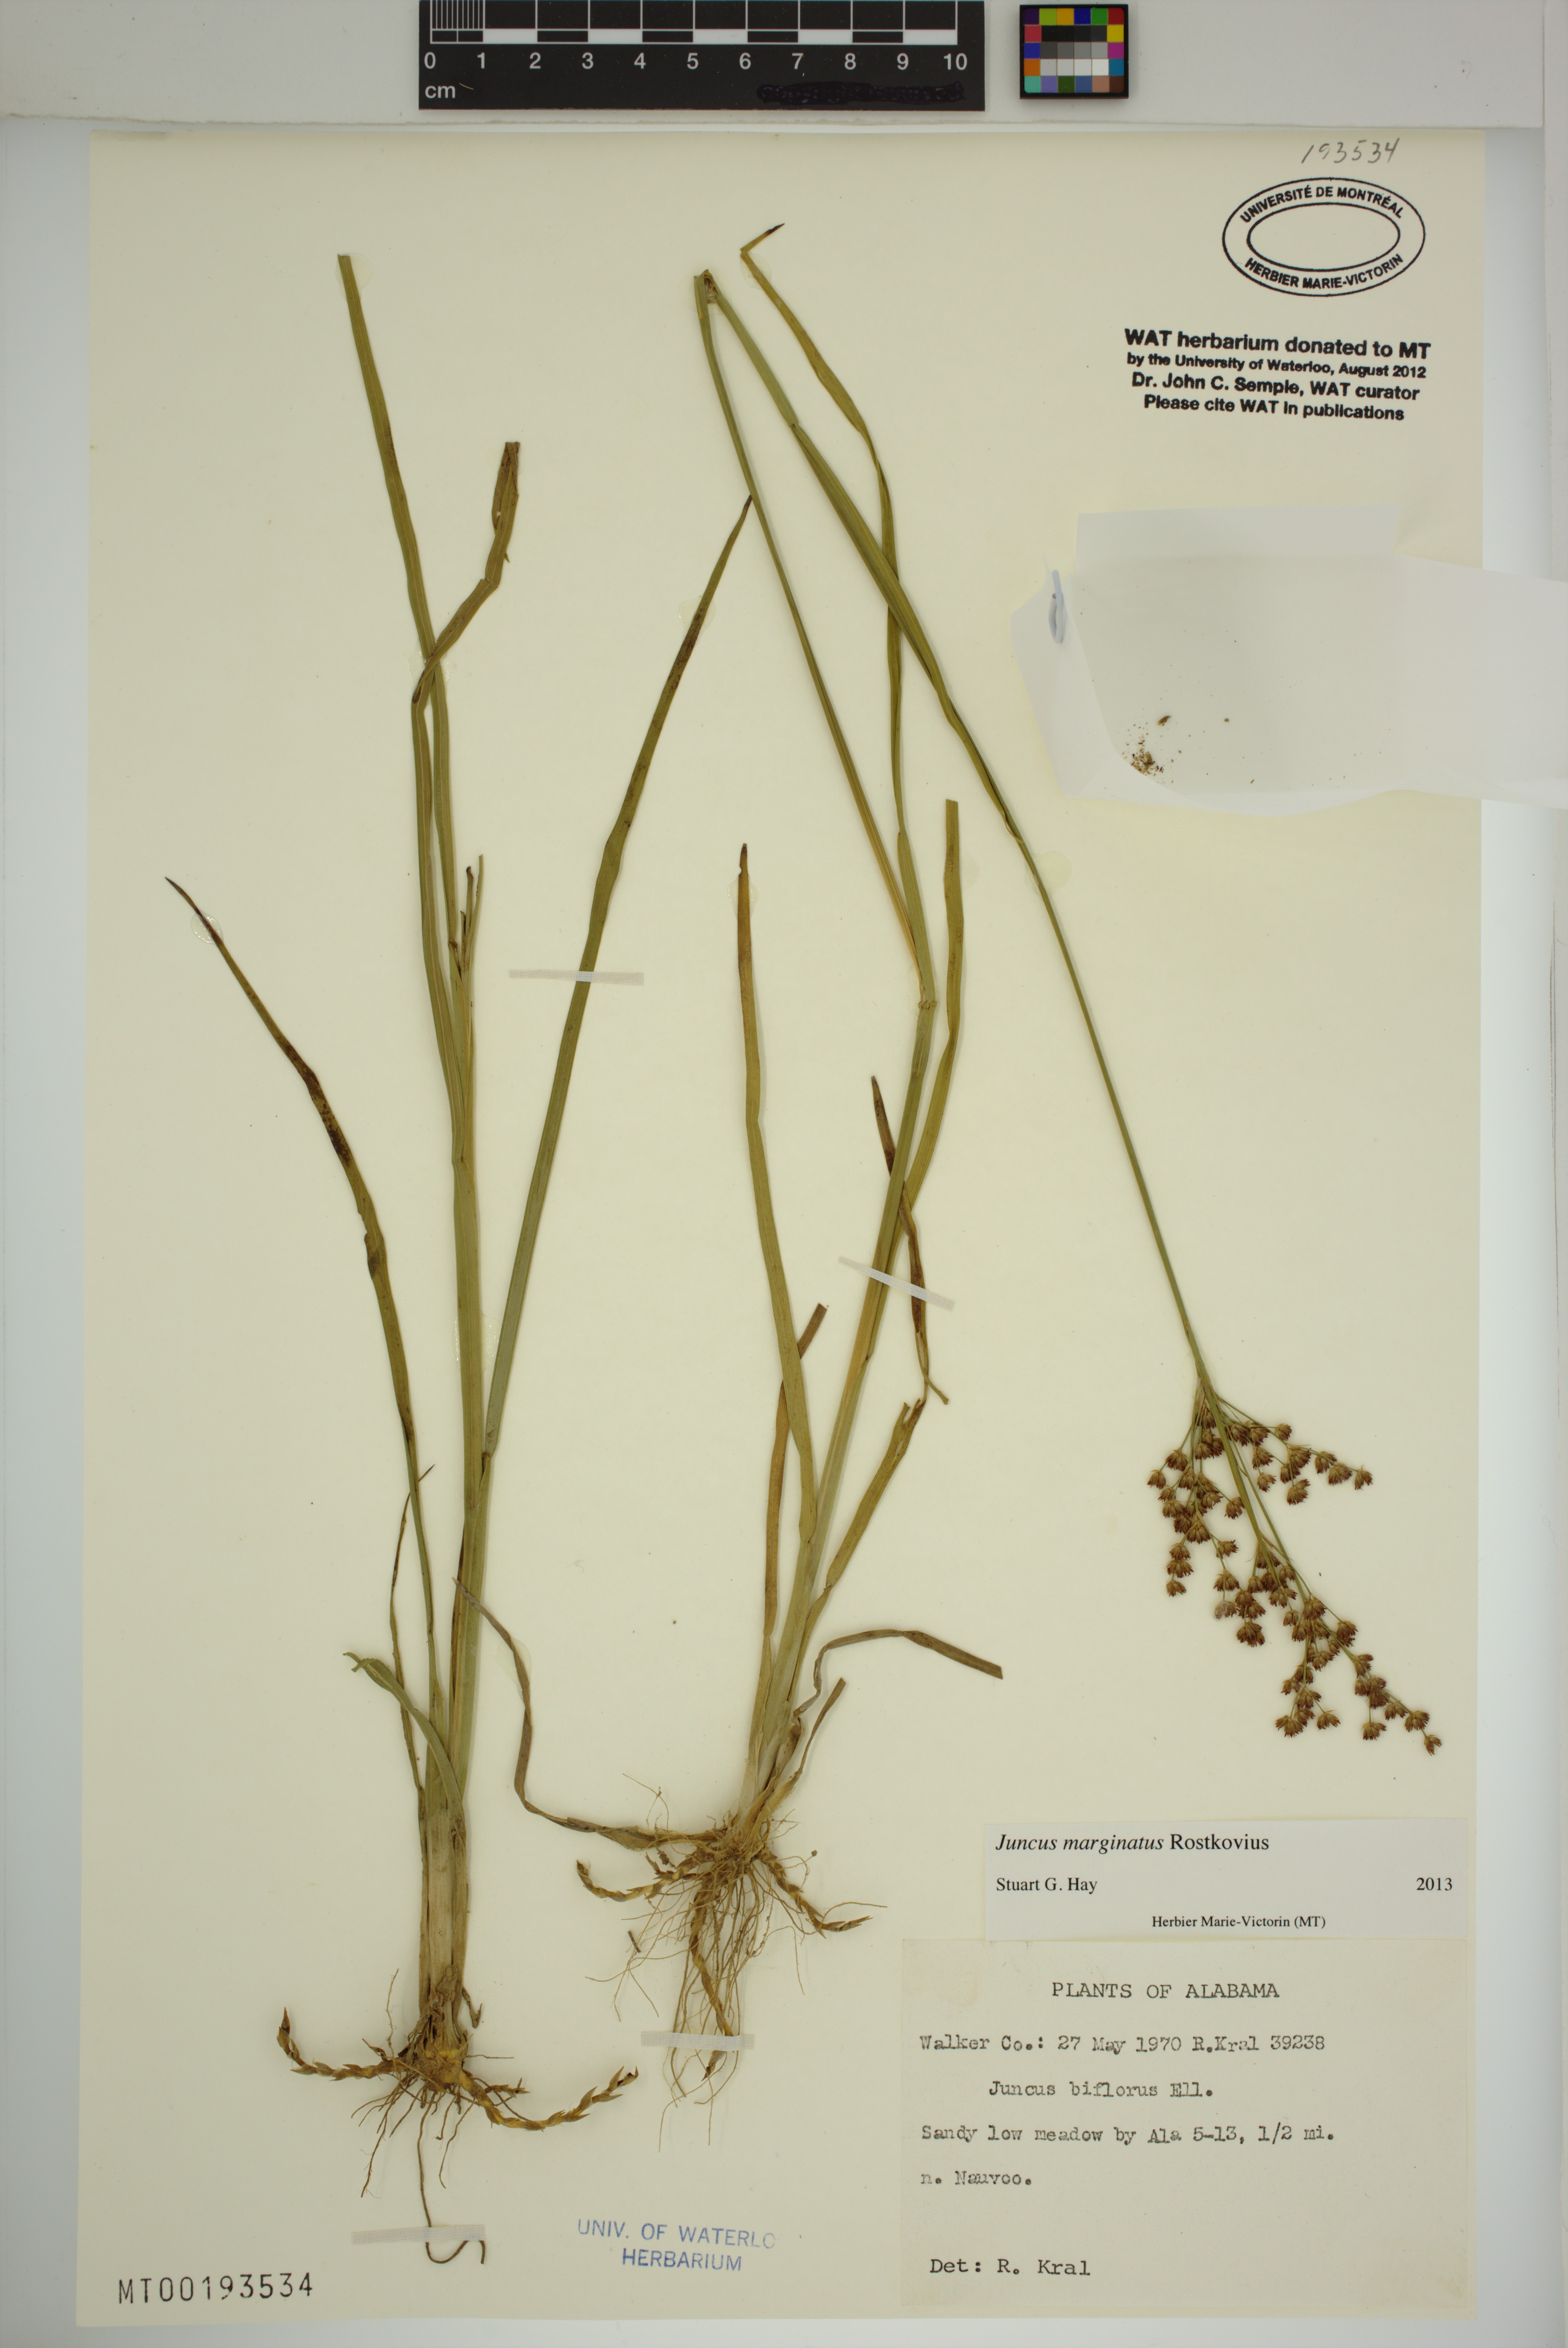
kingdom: Plantae
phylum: Tracheophyta
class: Liliopsida
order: Poales
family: Juncaceae
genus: Juncus
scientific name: Juncus marginatus
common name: Grass-leaf rush
